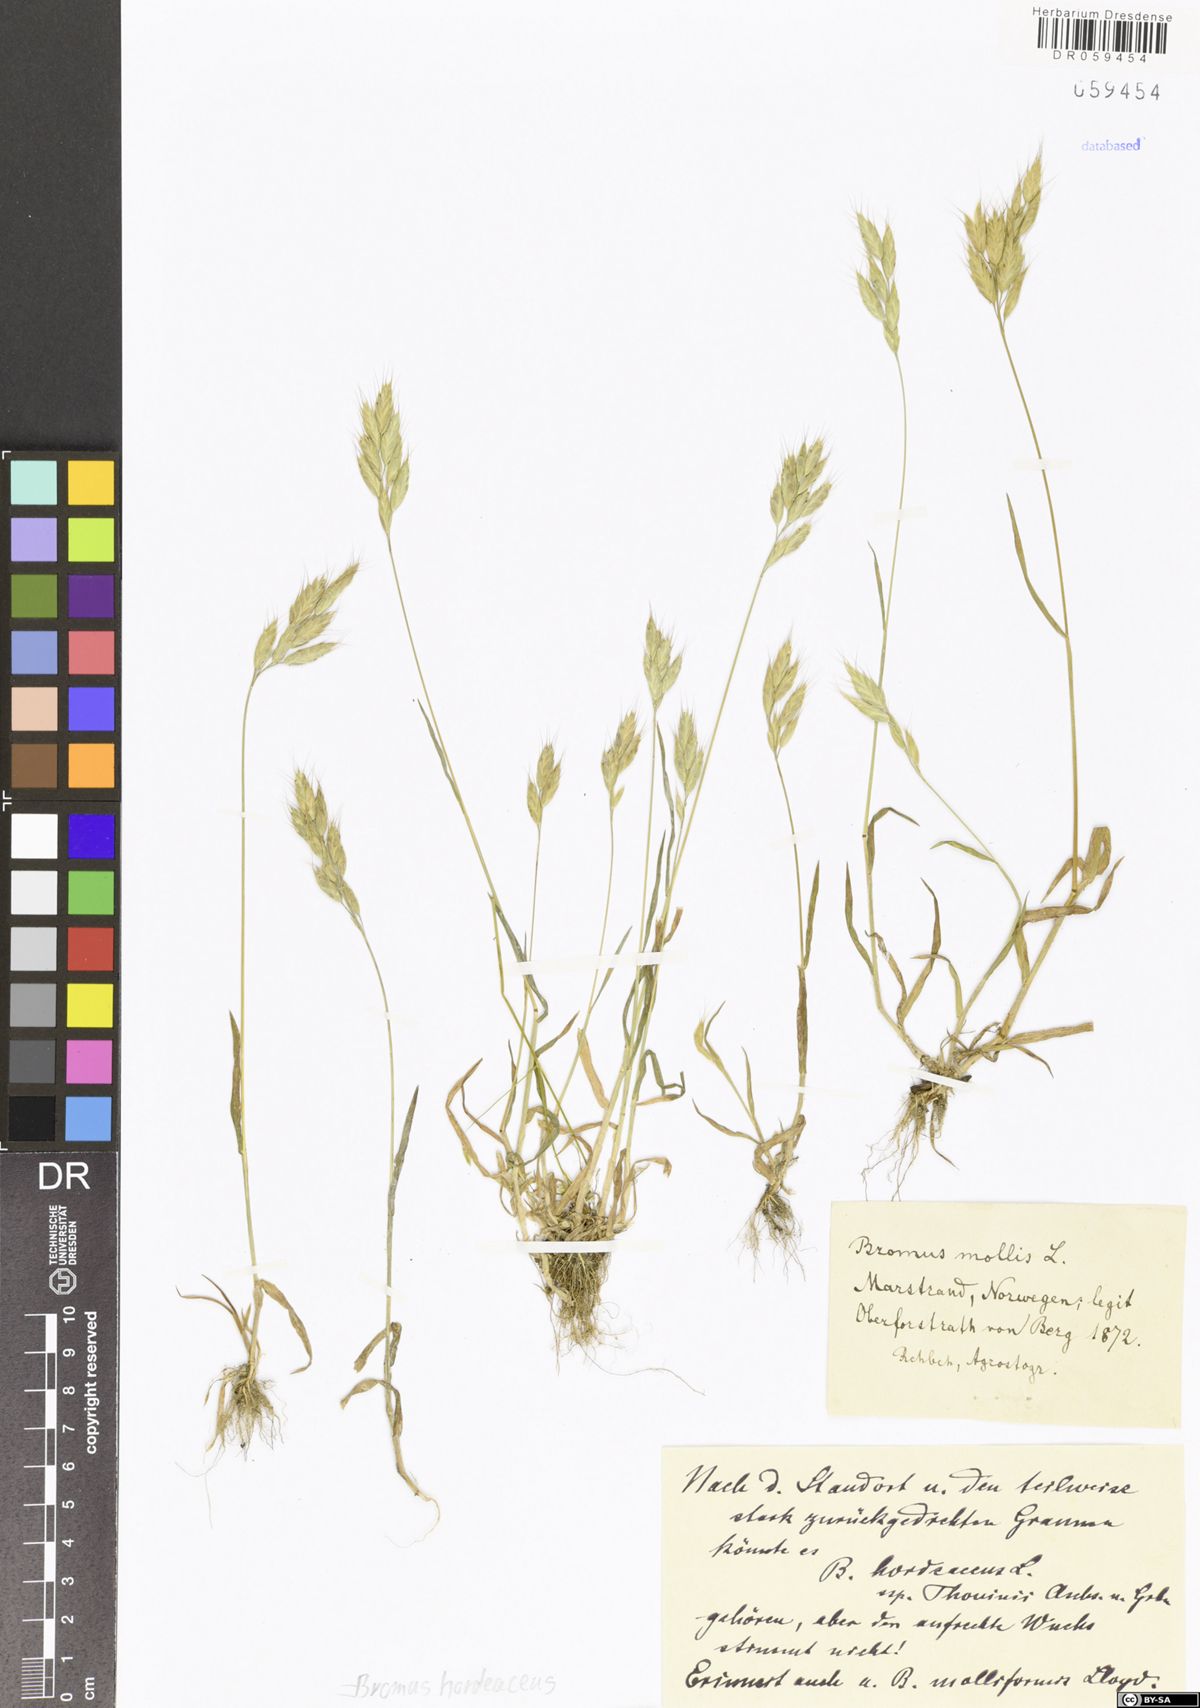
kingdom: Plantae
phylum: Tracheophyta
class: Liliopsida
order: Poales
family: Poaceae
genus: Bromus
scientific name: Bromus hordeaceus
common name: Soft brome
